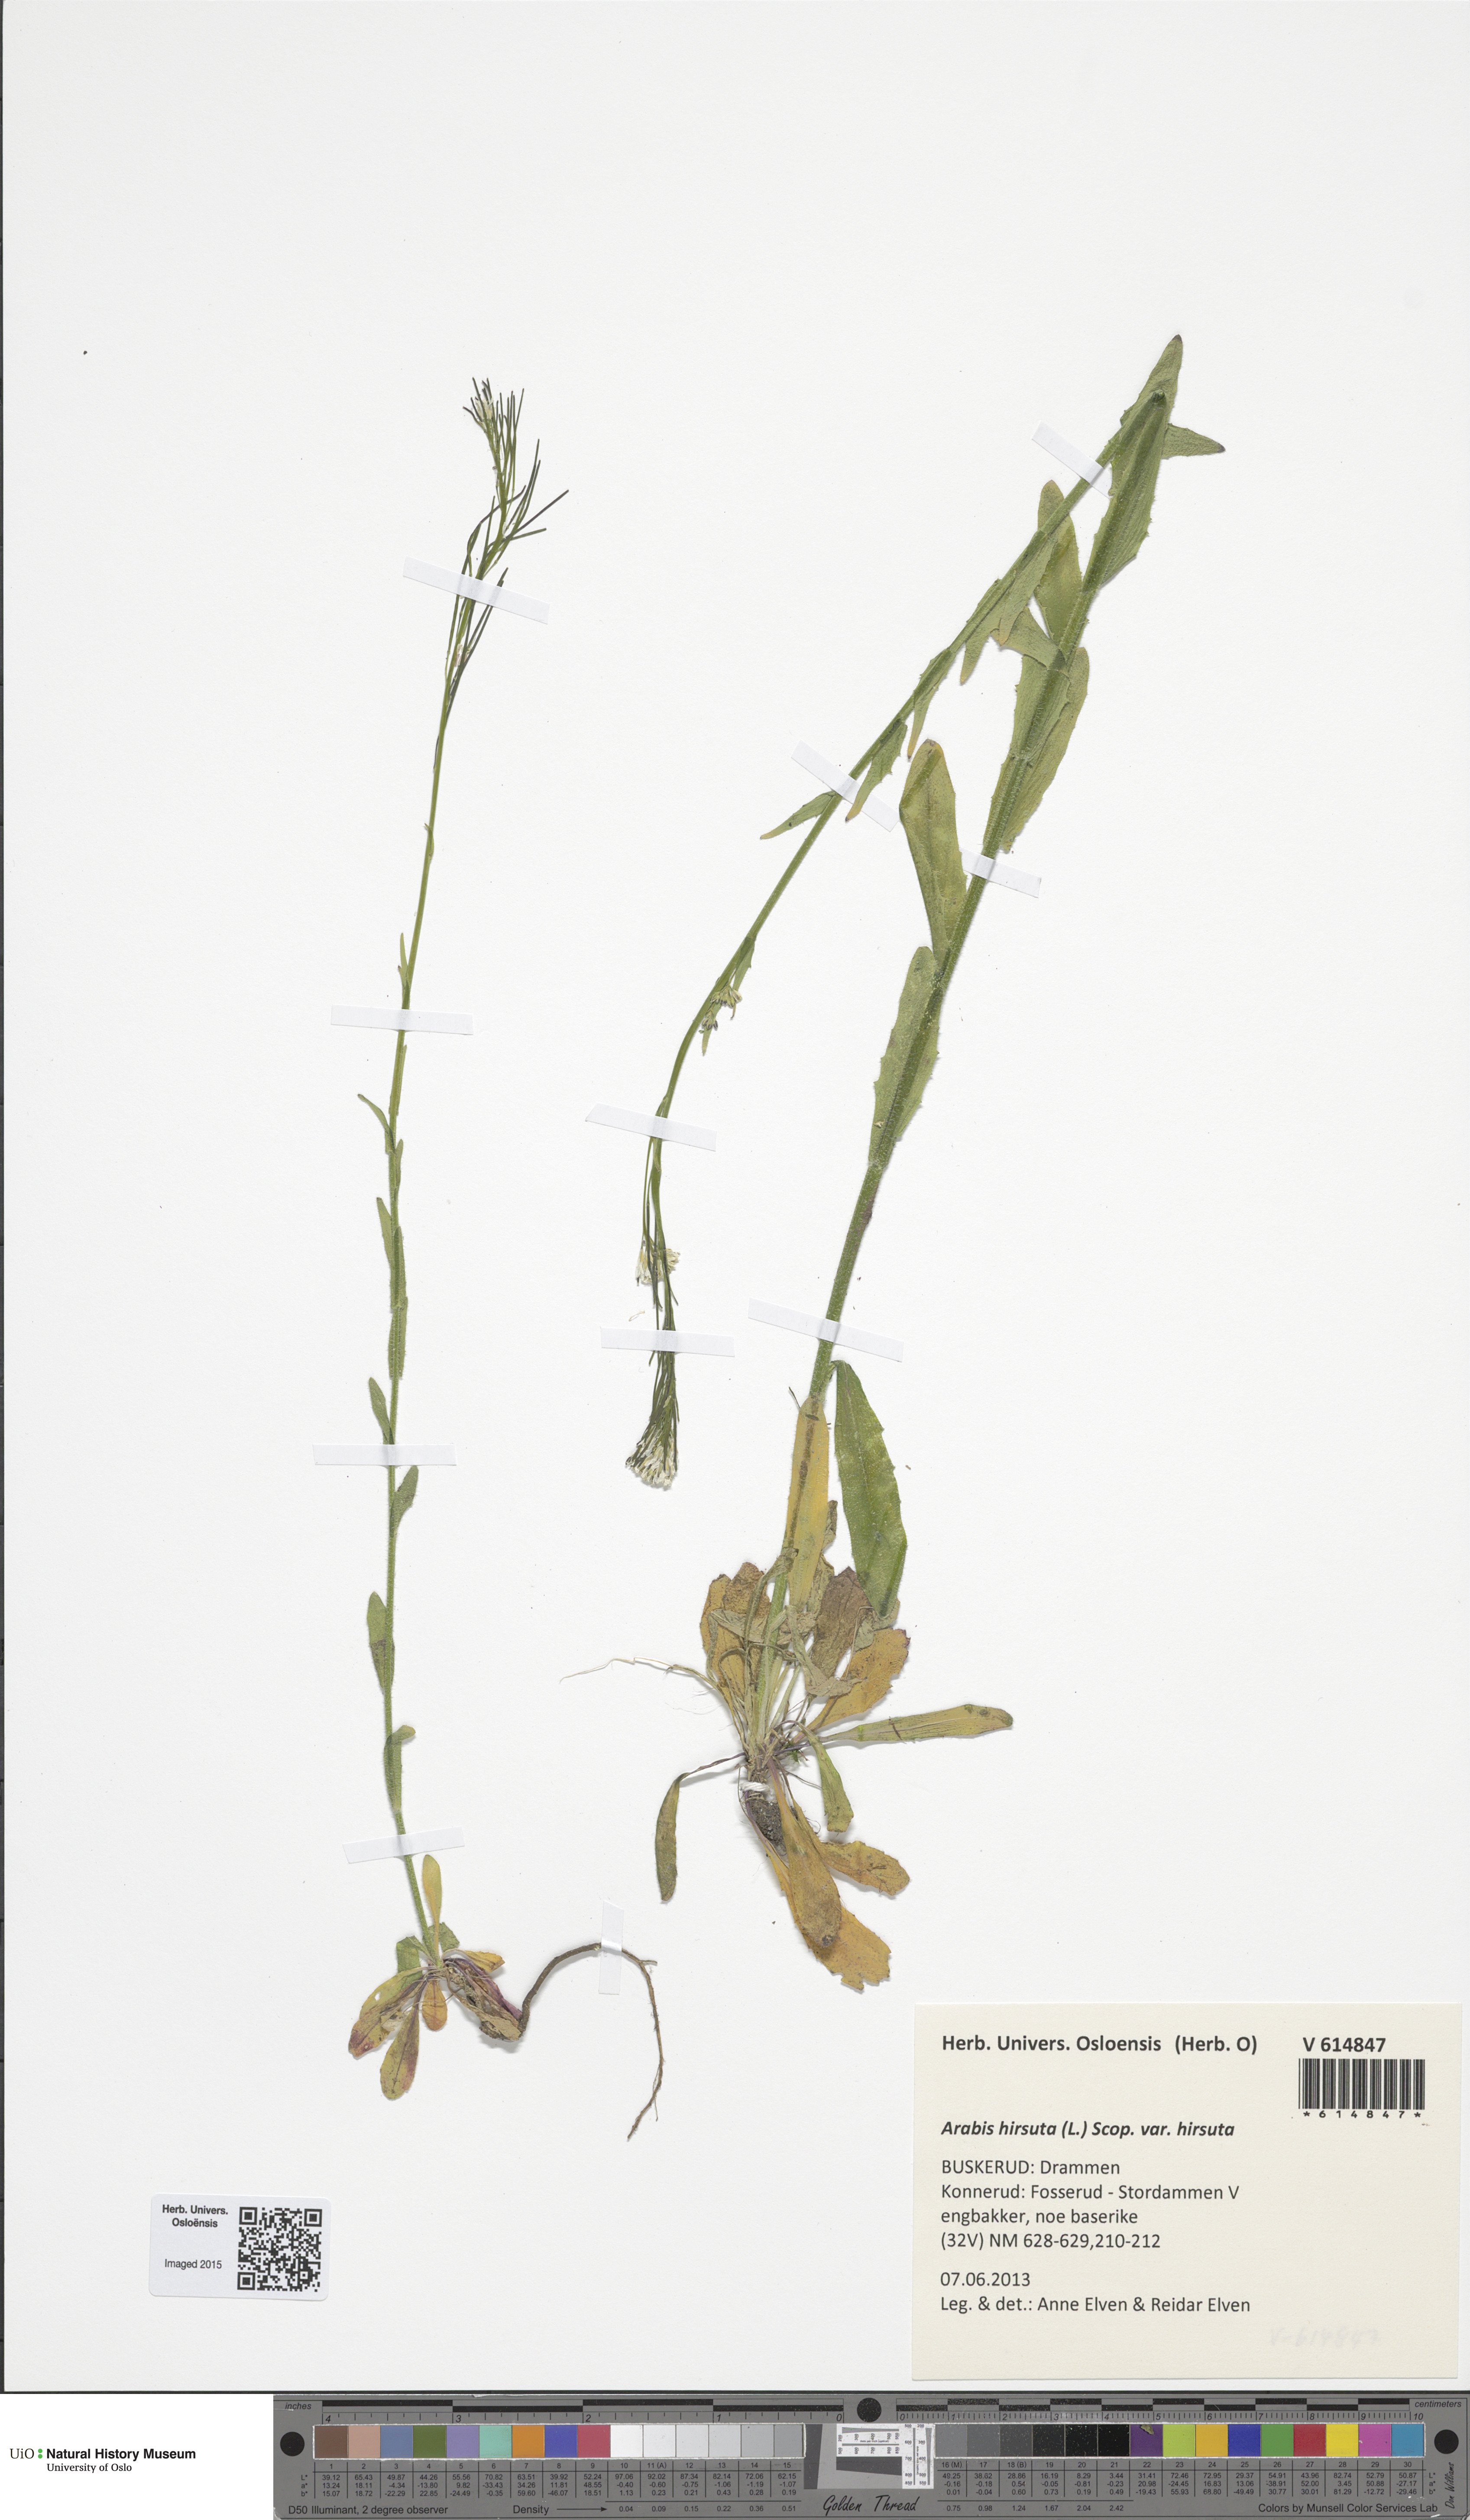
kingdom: Plantae
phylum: Tracheophyta
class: Magnoliopsida
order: Brassicales
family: Brassicaceae
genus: Arabis
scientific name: Arabis hirsuta
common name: Hairy rock-cress
